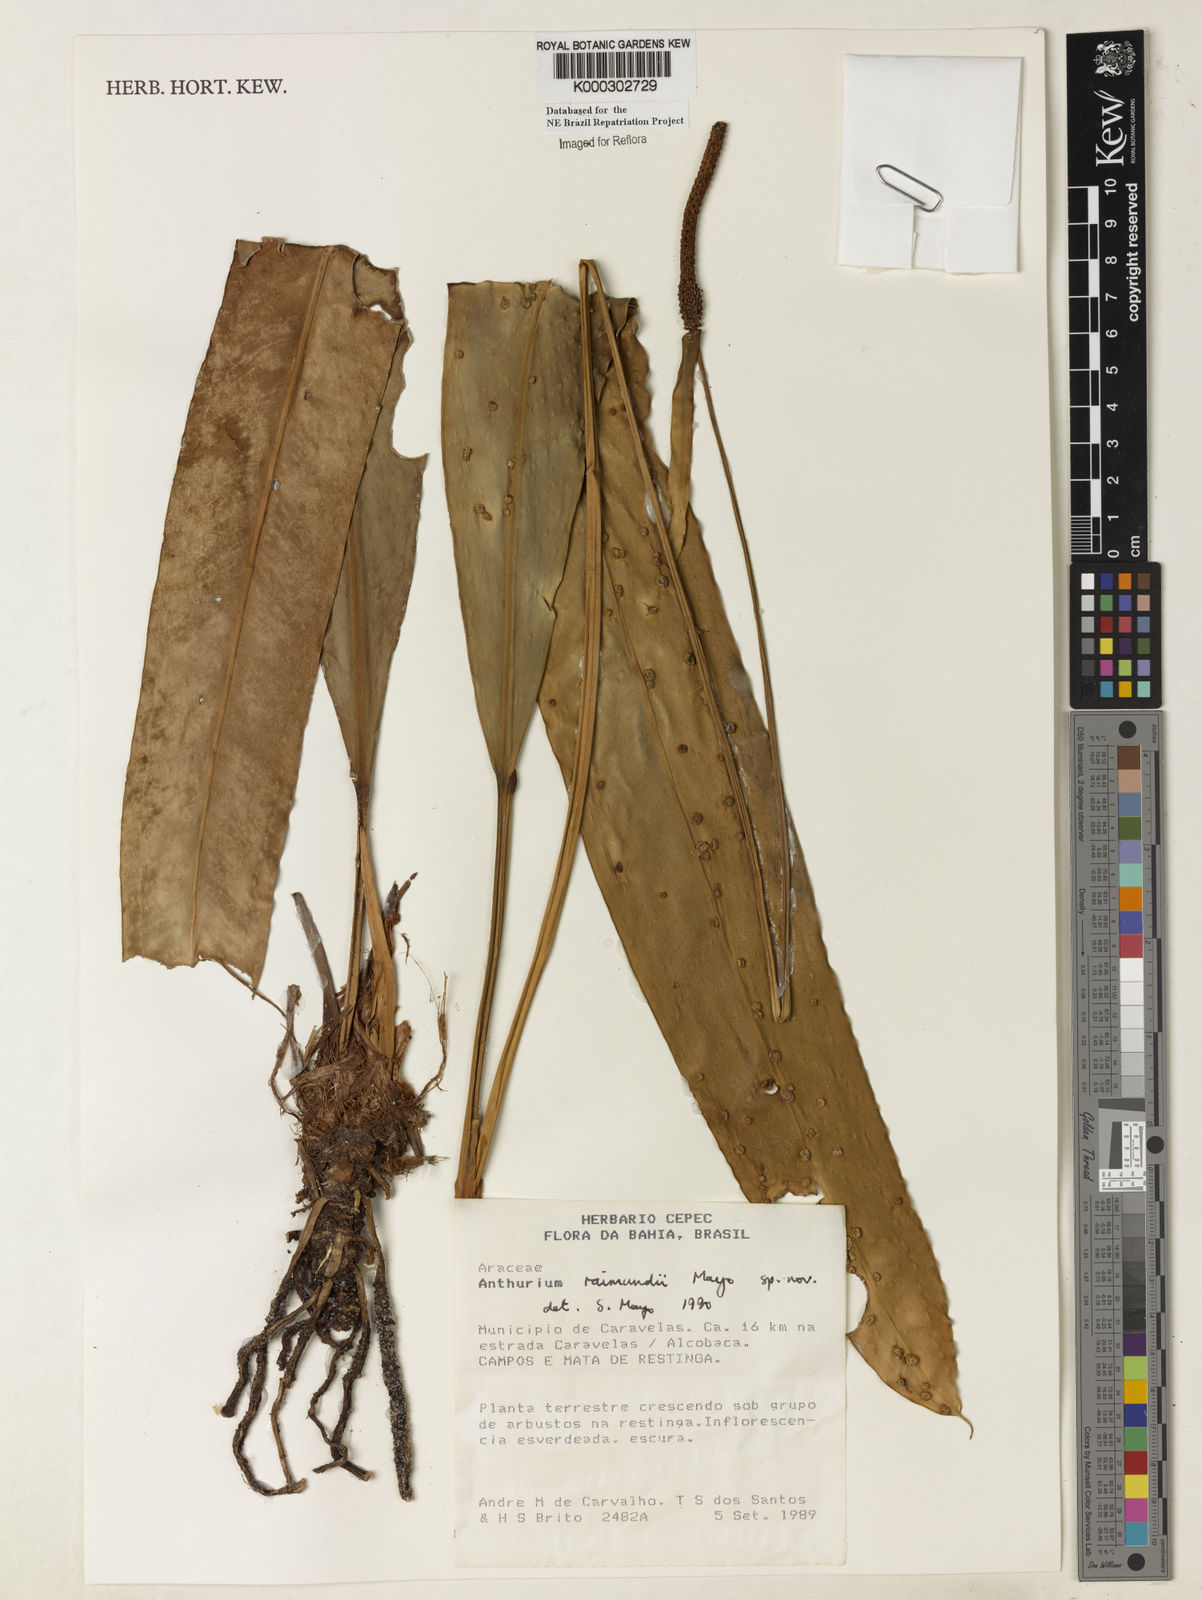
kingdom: Plantae
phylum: Tracheophyta
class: Liliopsida
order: Alismatales
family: Araceae
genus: Anthurium
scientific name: Anthurium raimundii
